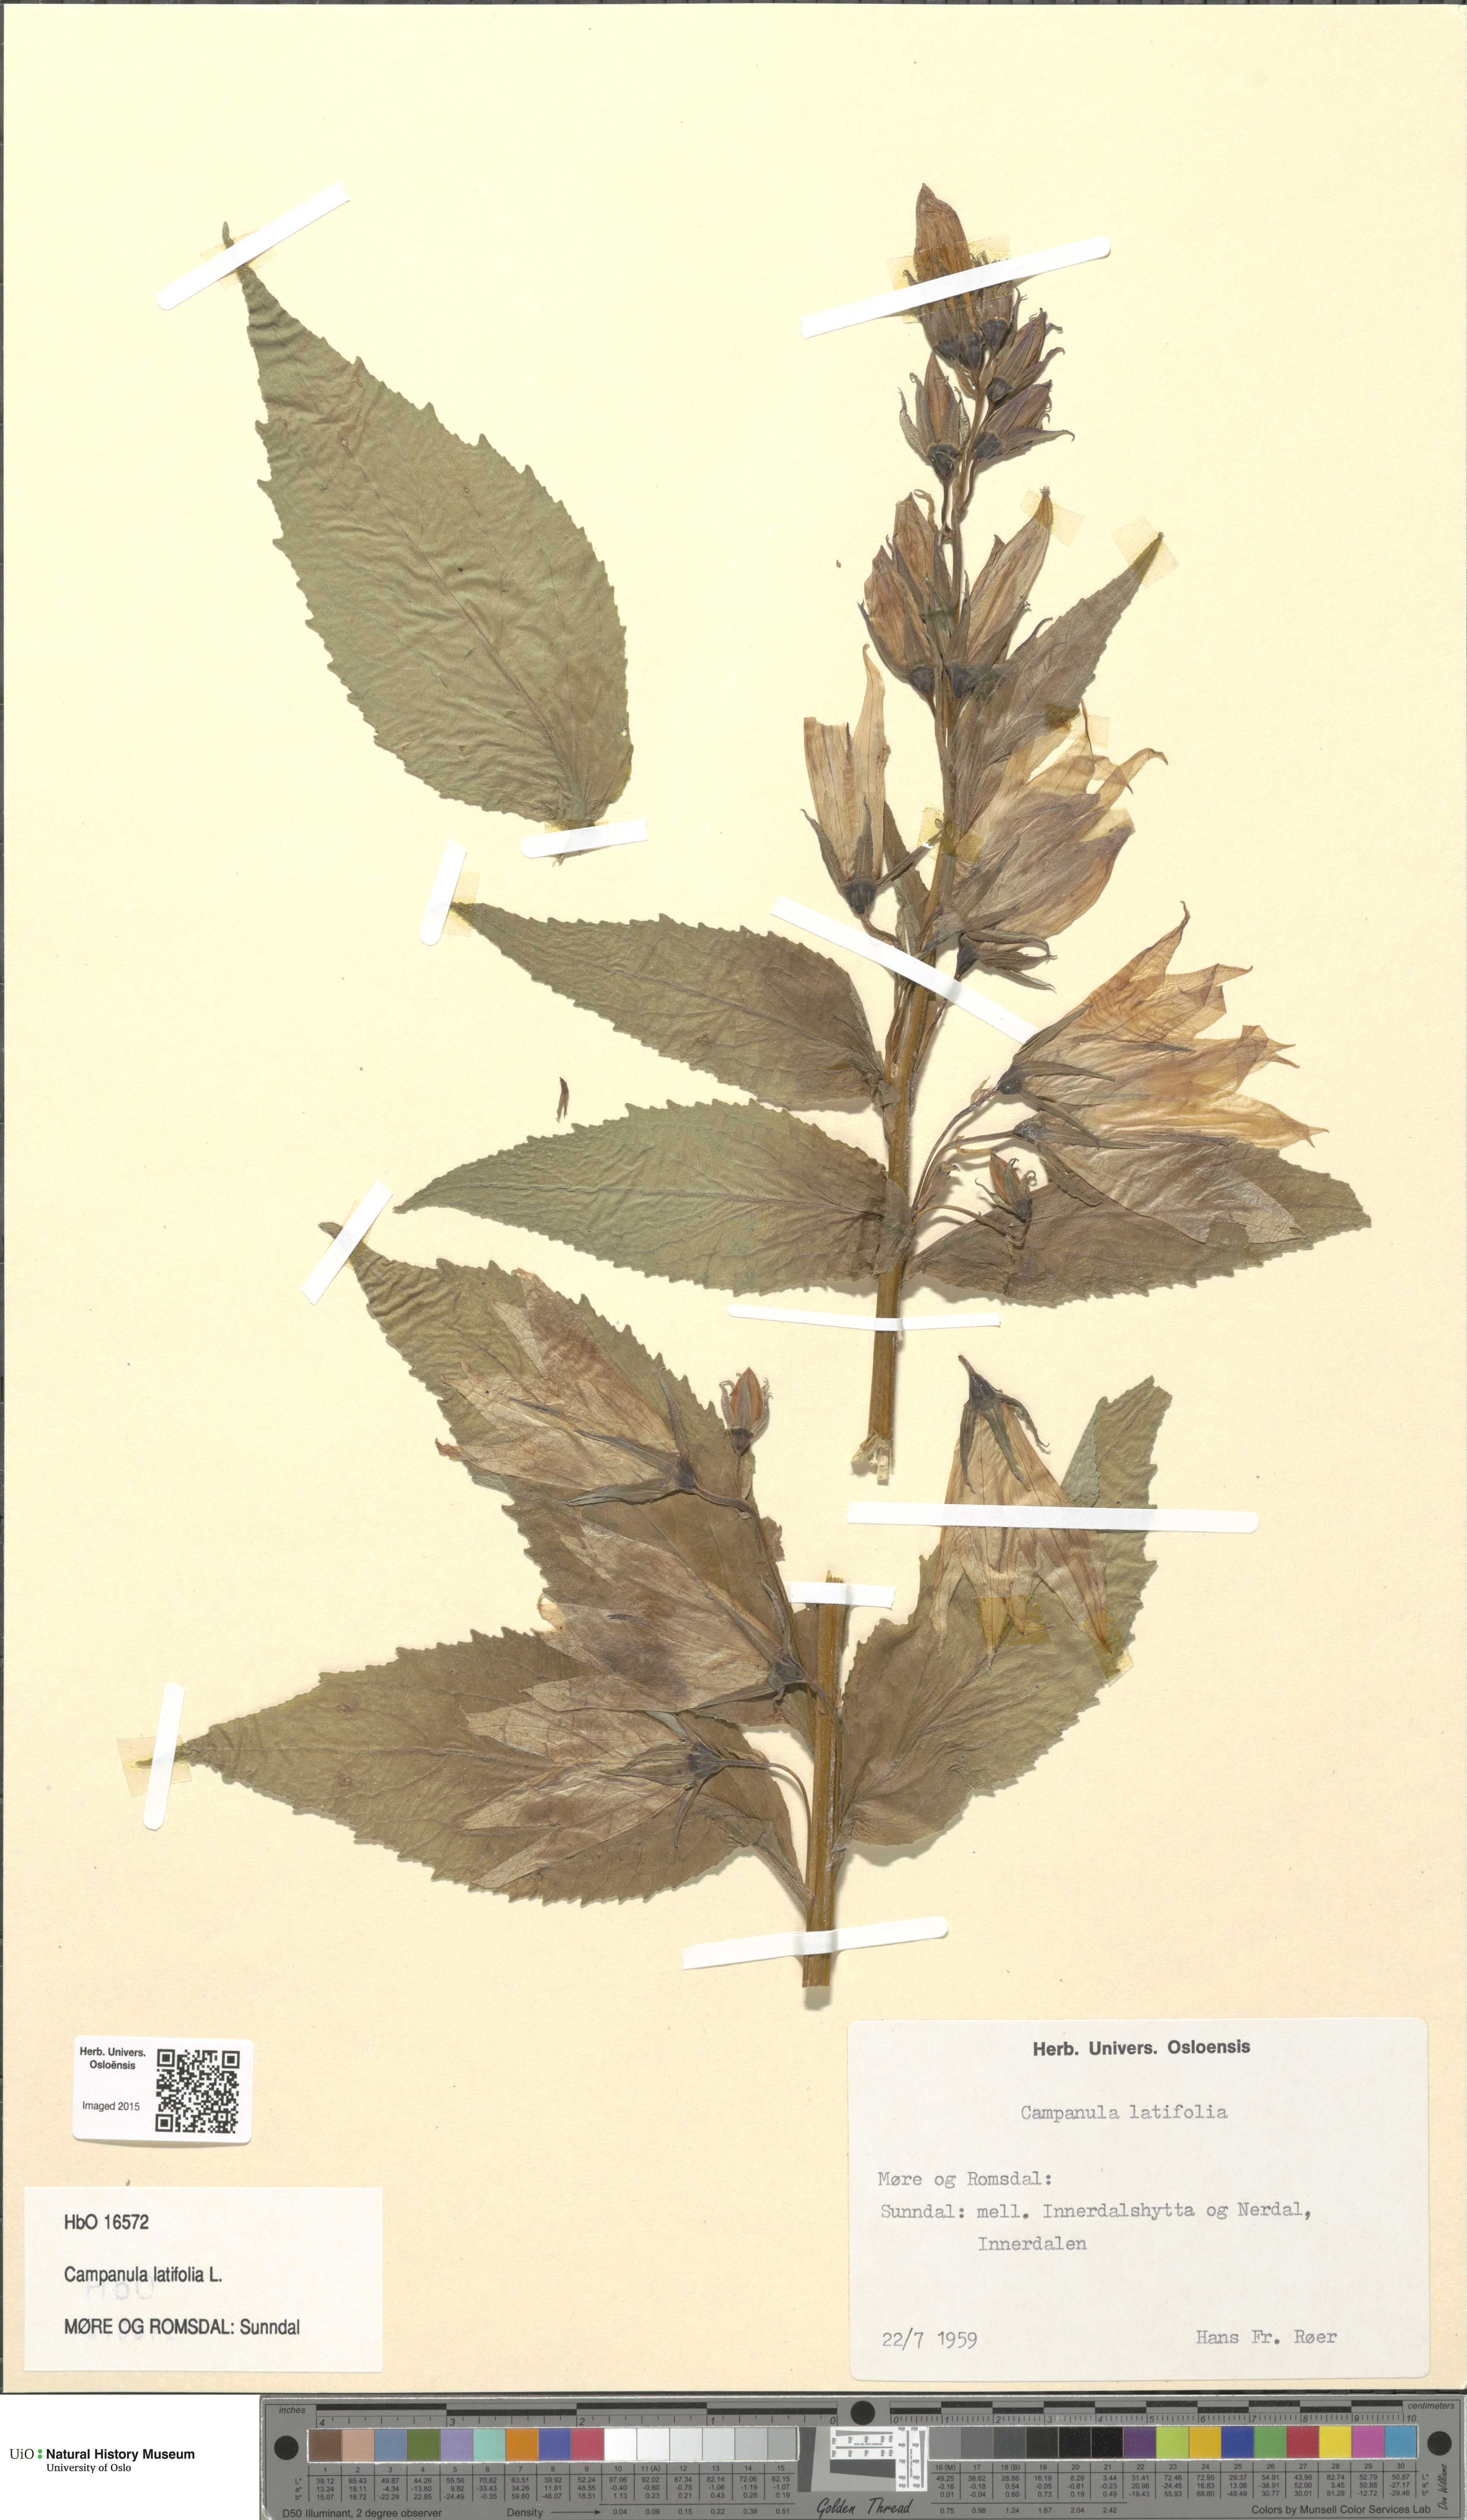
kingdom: Plantae
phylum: Tracheophyta
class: Magnoliopsida
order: Asterales
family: Campanulaceae
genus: Campanula
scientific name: Campanula latifolia
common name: Giant bellflower
